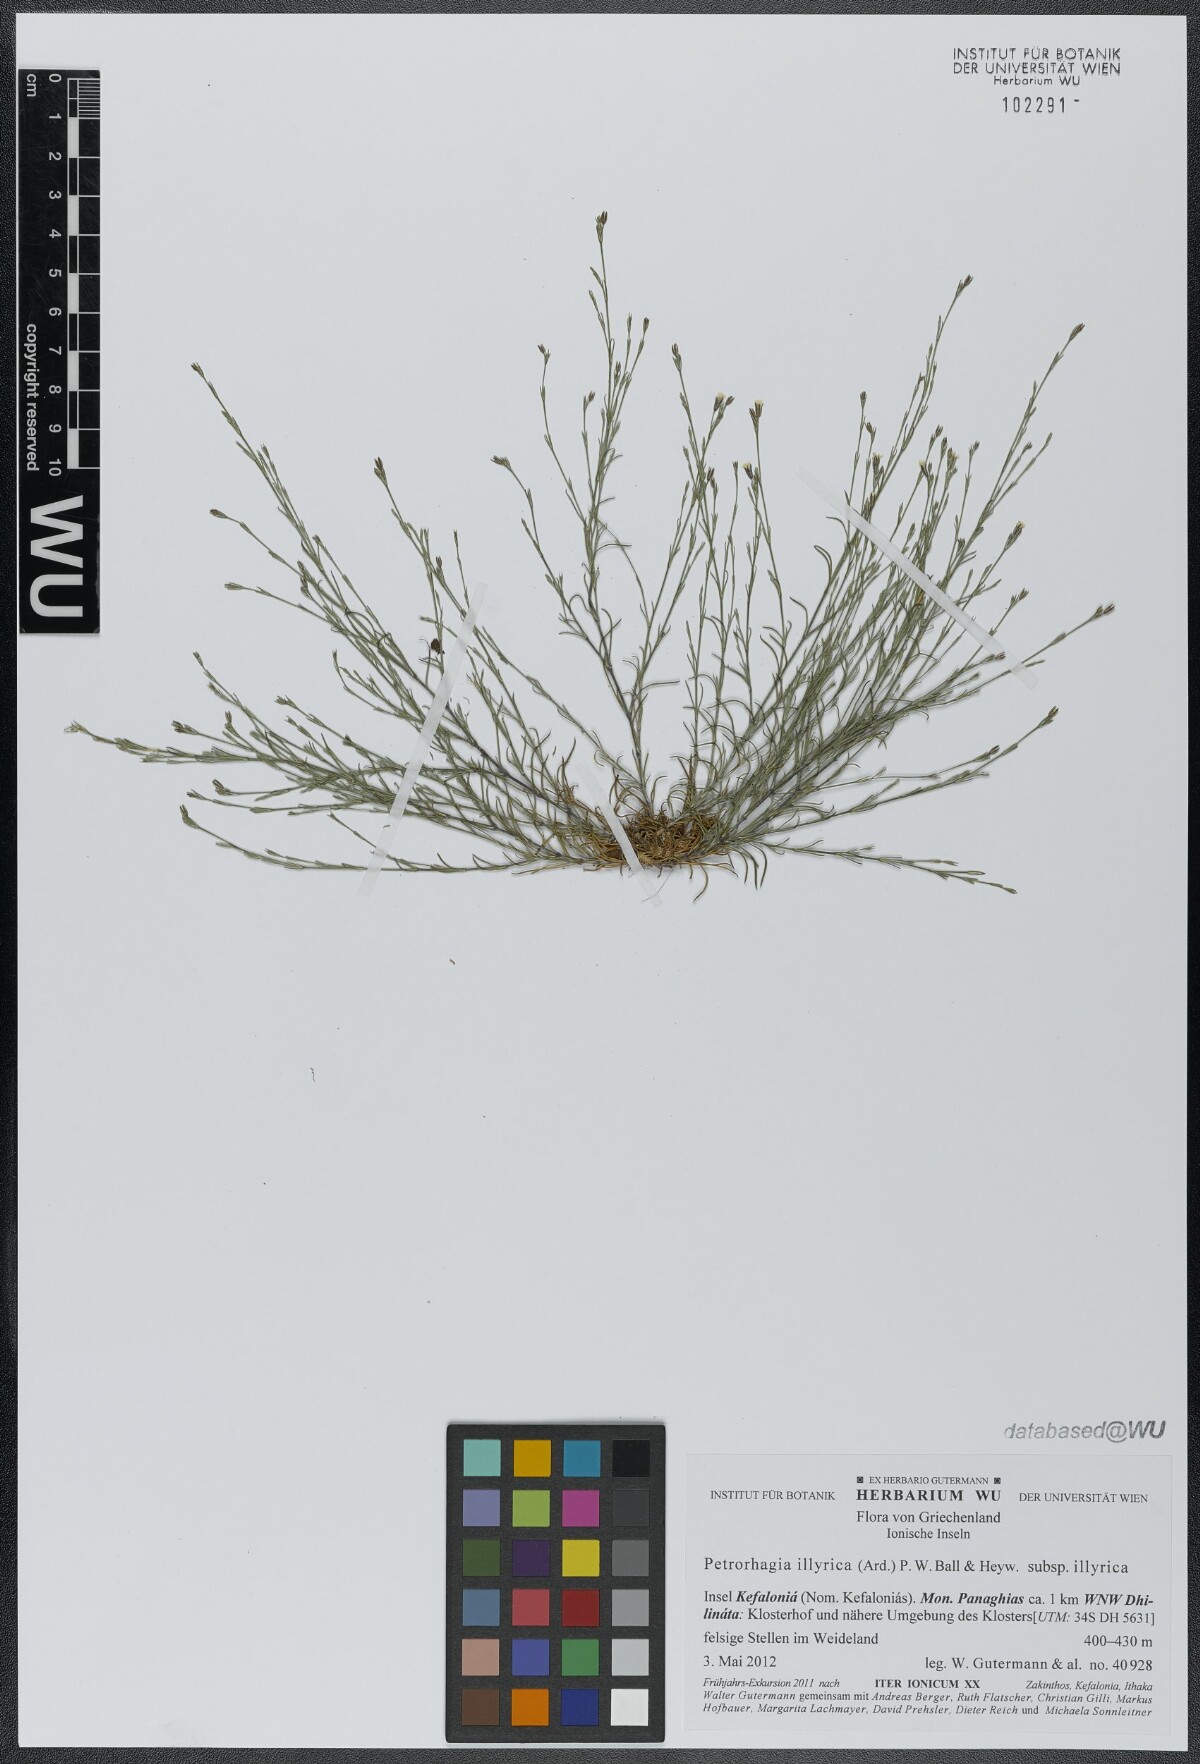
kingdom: Plantae
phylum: Tracheophyta
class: Magnoliopsida
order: Caryophyllales
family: Caryophyllaceae
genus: Dianthus
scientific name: Dianthus illyricus
